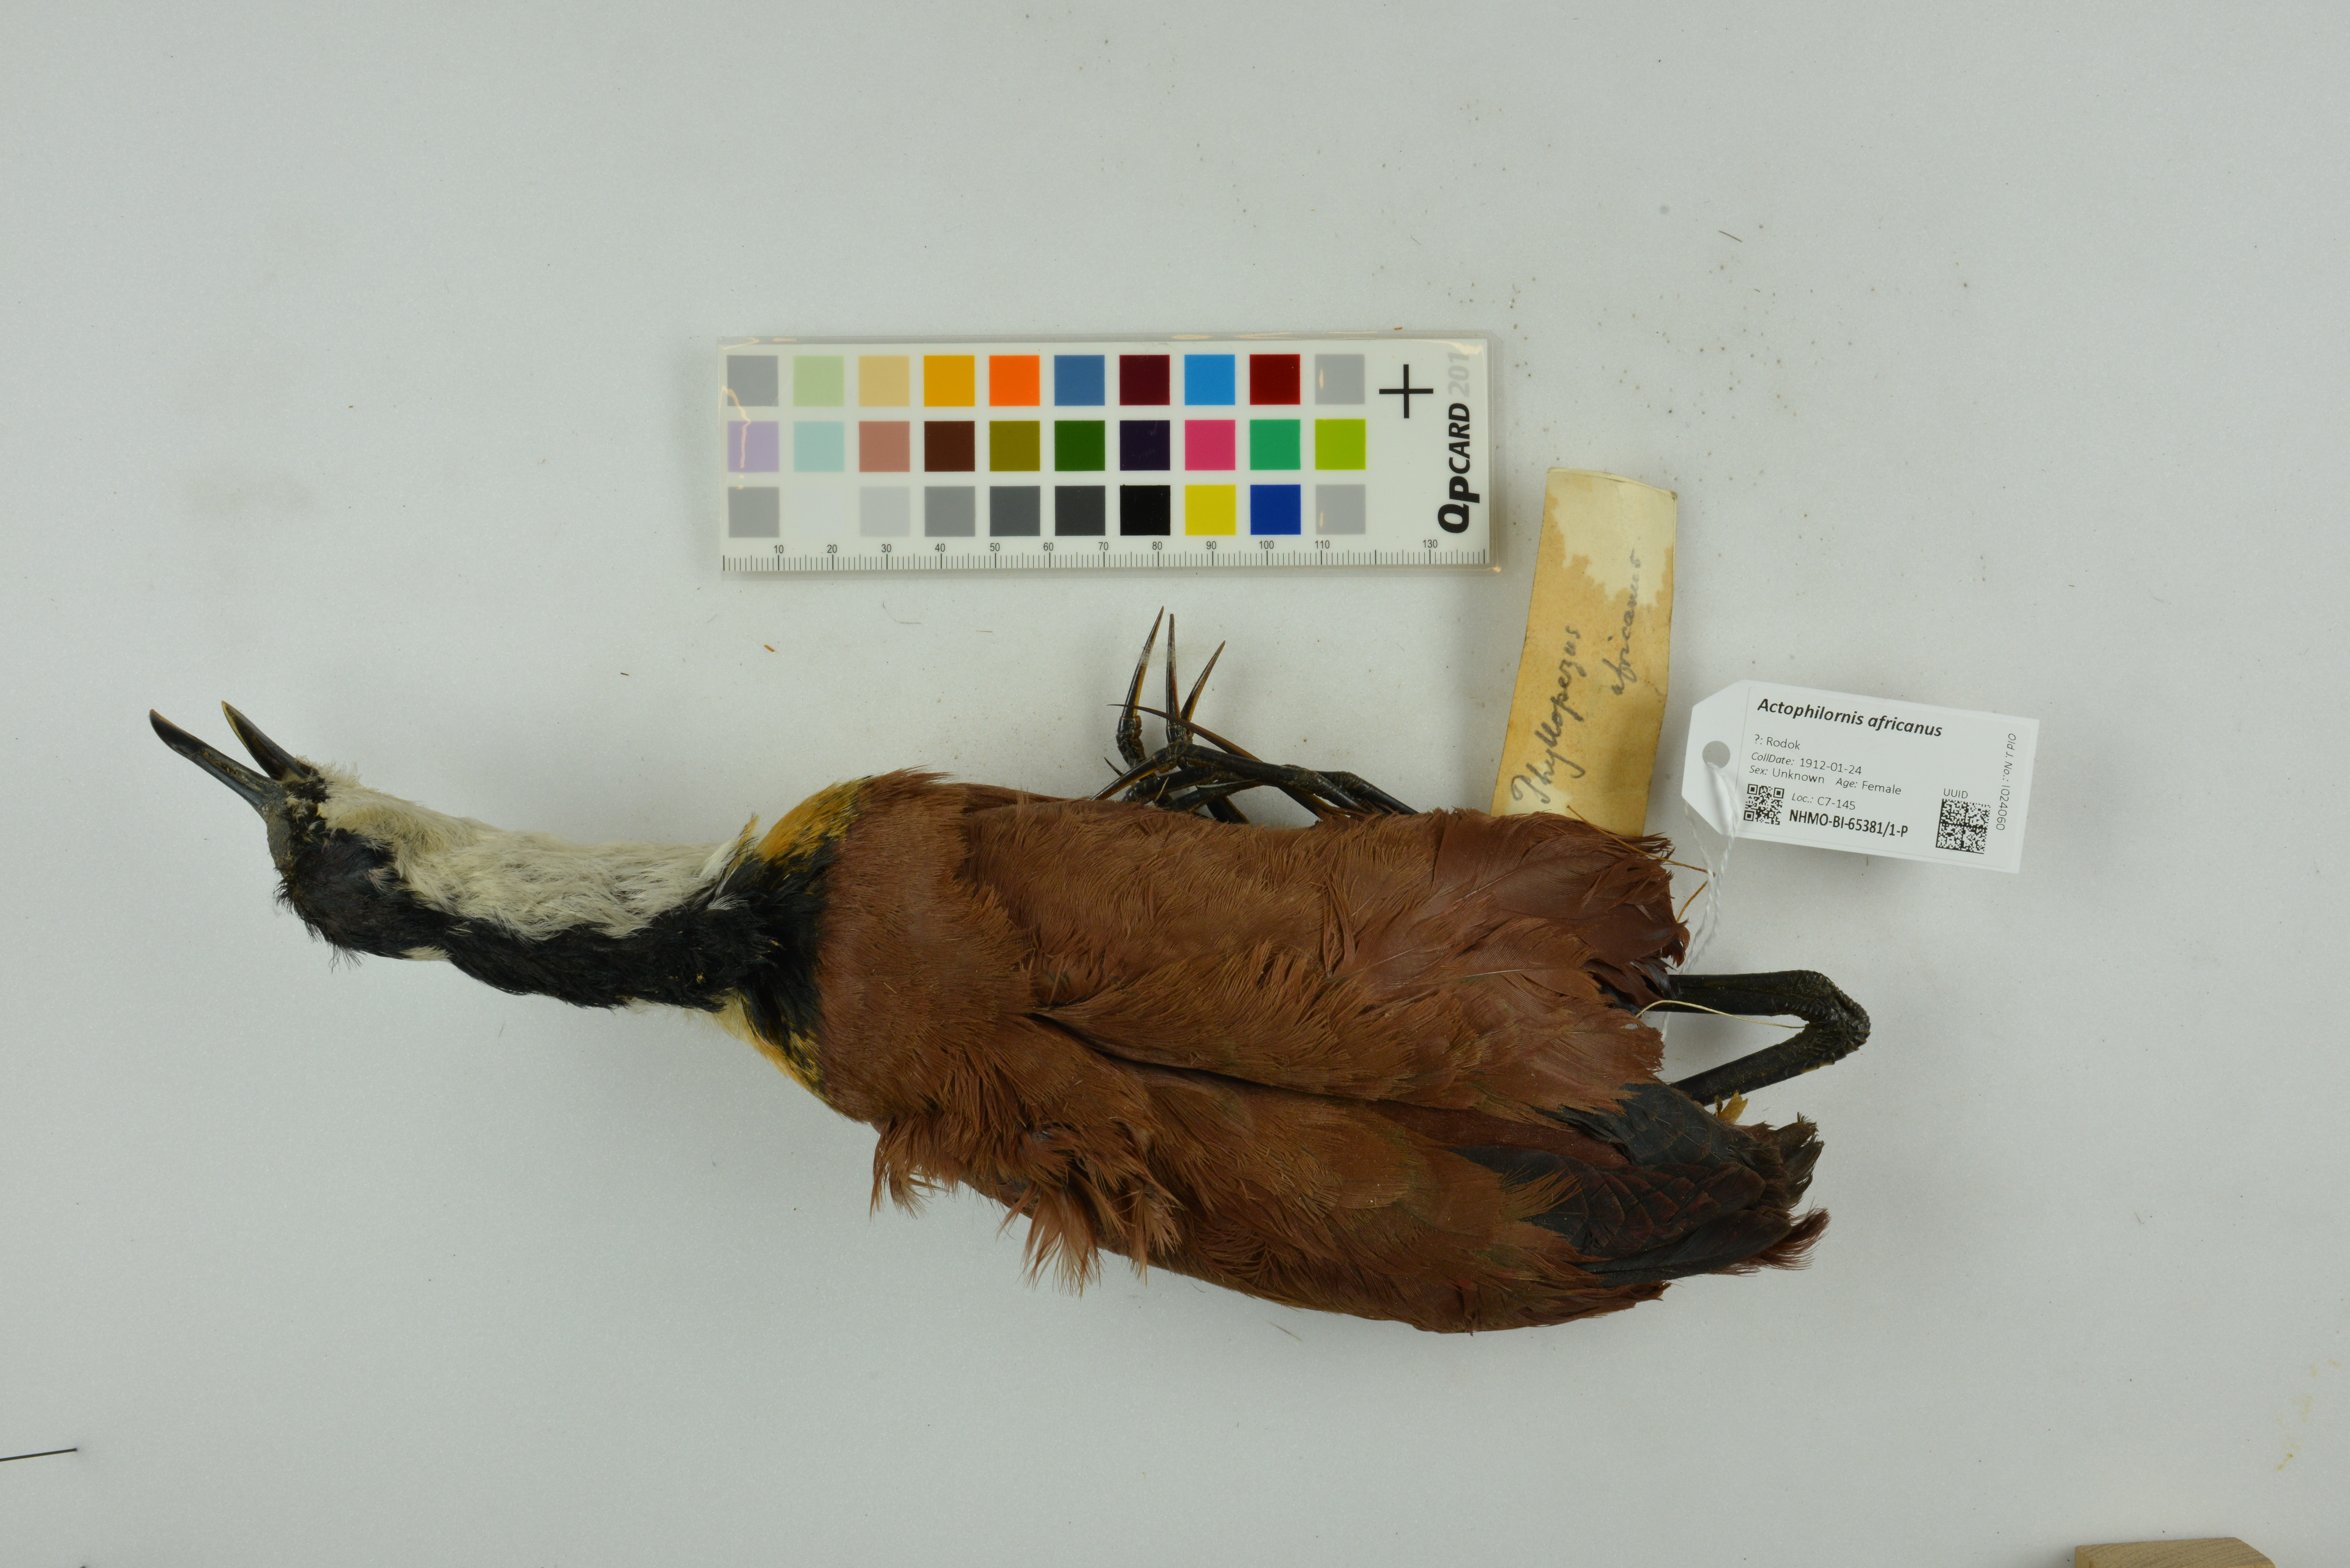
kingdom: Animalia
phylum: Chordata
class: Aves
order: Charadriiformes
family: Jacanidae
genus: Actophilornis
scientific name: Actophilornis africanus
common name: African jacana
